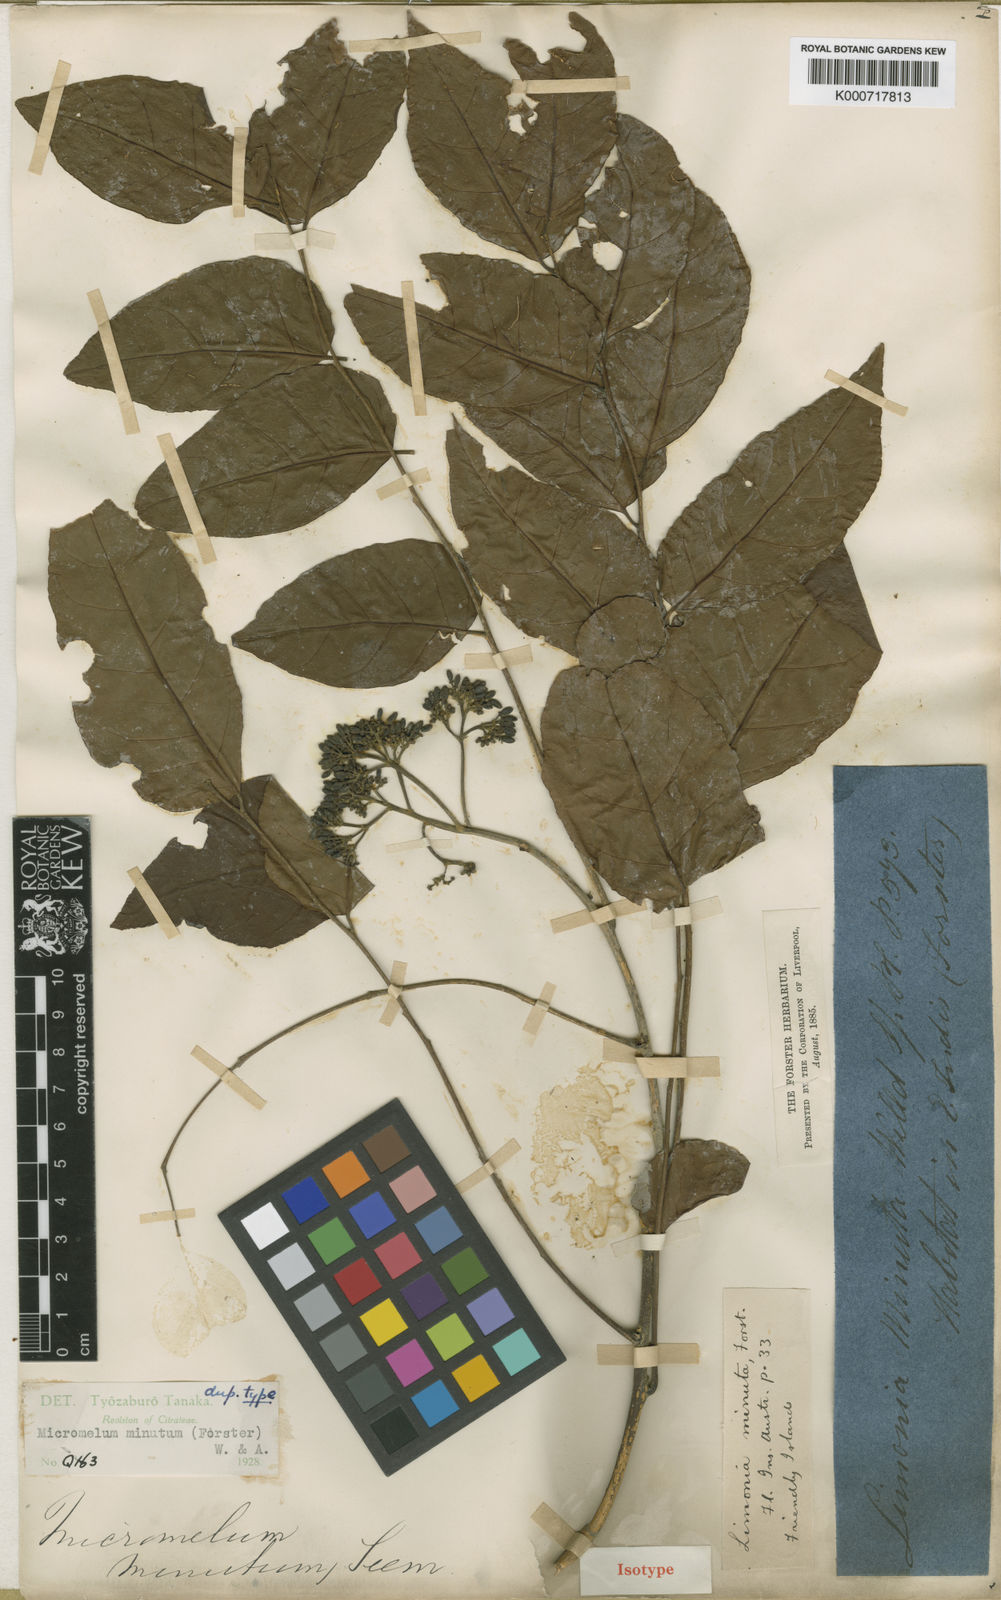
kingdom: Plantae
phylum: Tracheophyta
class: Magnoliopsida
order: Sapindales
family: Rutaceae
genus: Micromelum
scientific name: Micromelum minutum
